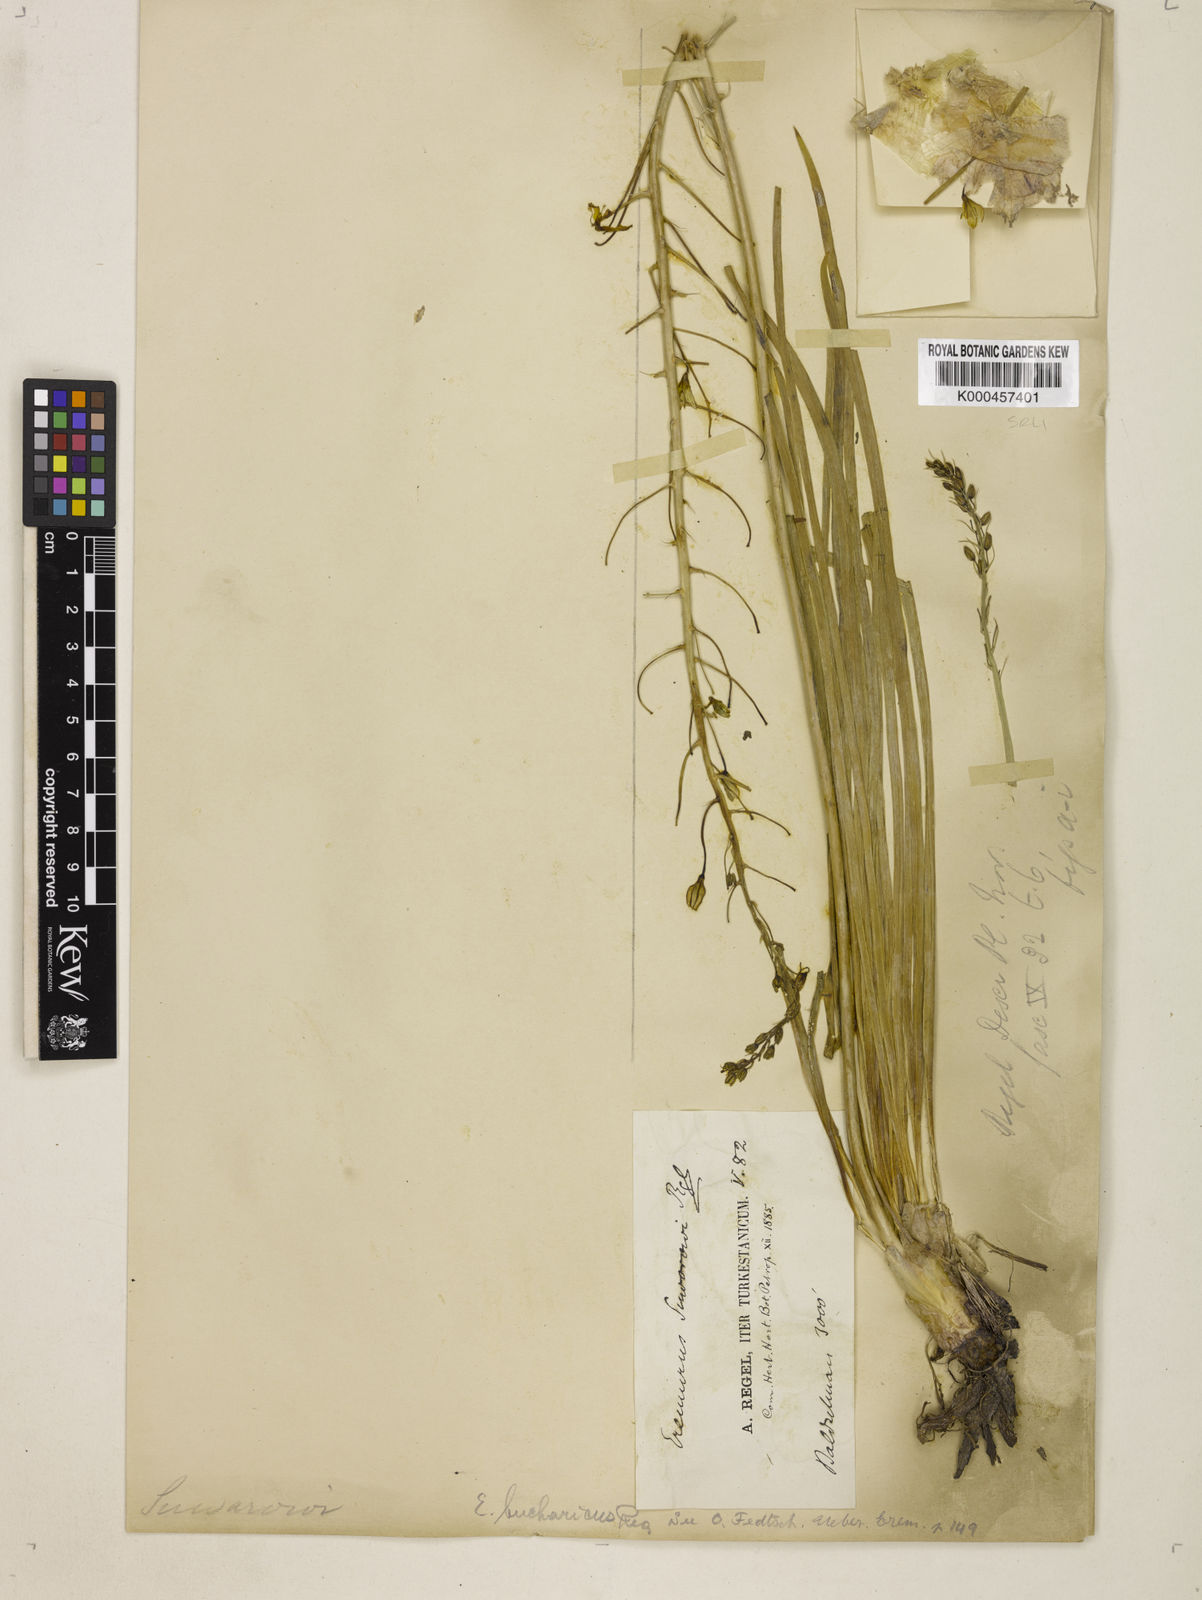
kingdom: Plantae
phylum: Tracheophyta
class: Liliopsida
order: Asparagales
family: Asphodelaceae
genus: Eremurus
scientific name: Eremurus bucharicus
